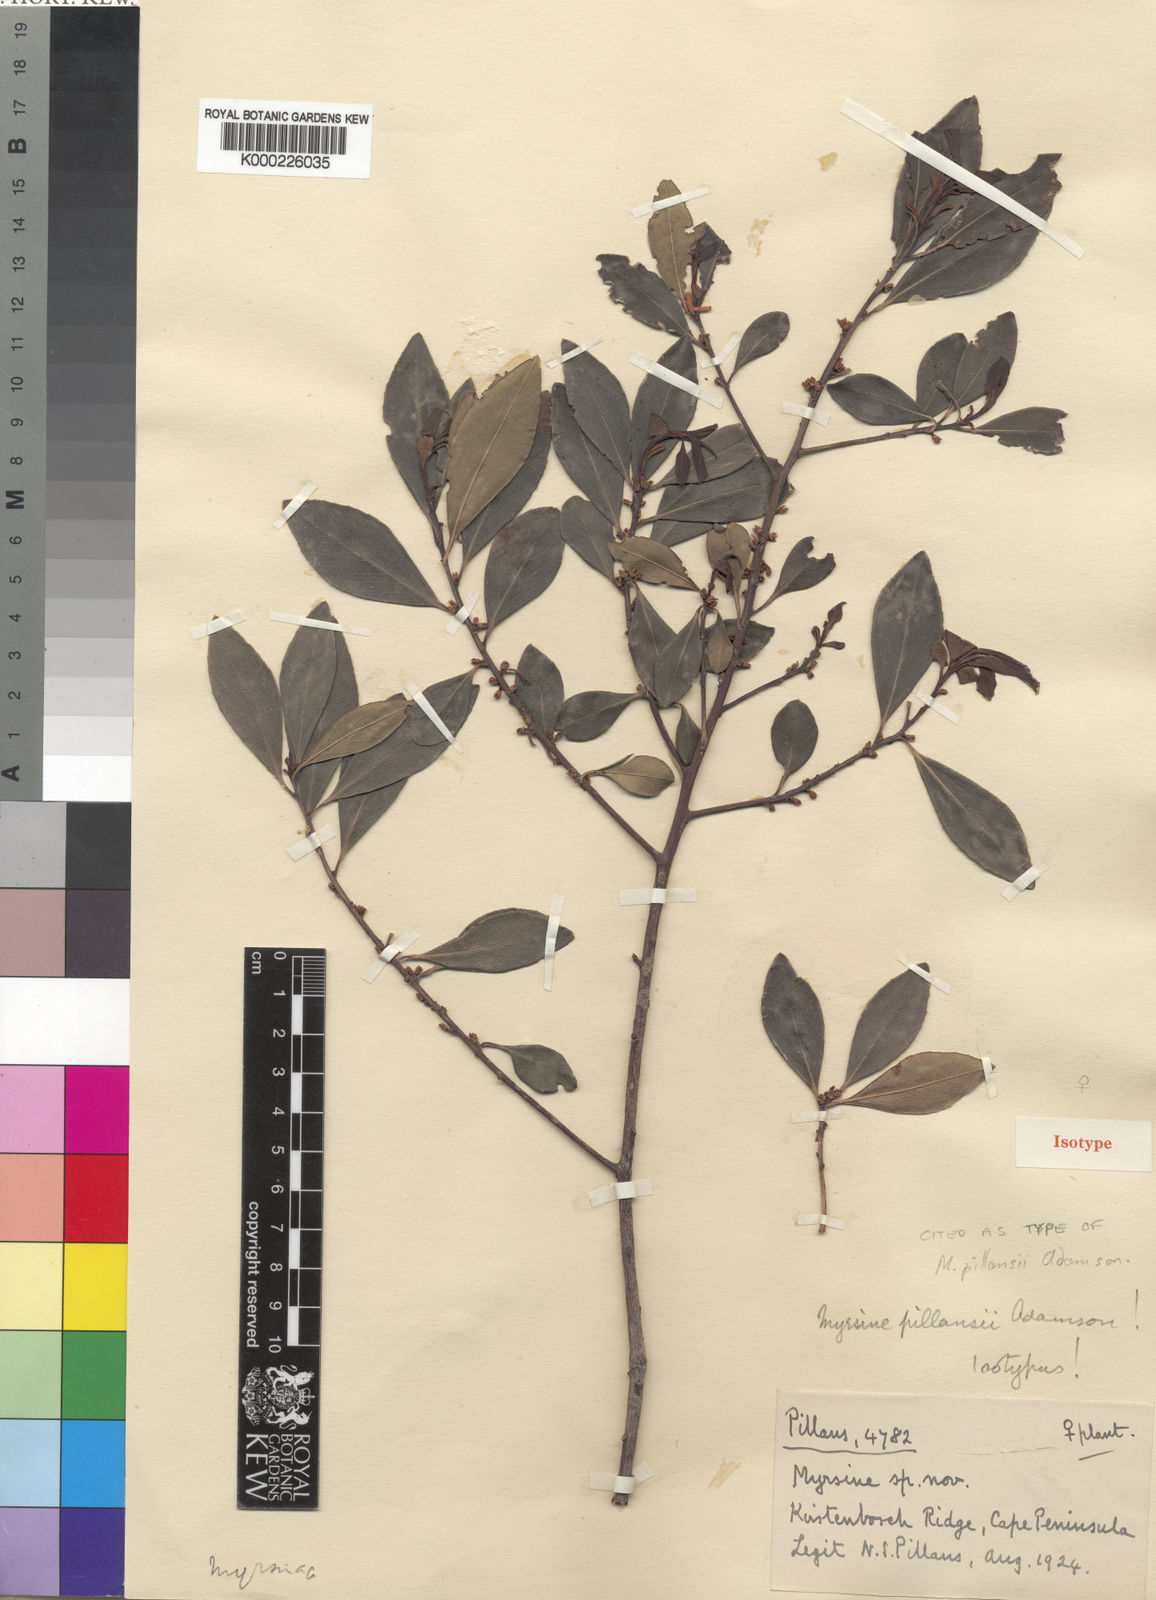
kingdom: Plantae
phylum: Tracheophyta
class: Magnoliopsida
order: Ericales
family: Primulaceae
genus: Myrsine
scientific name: Myrsine pillansii
